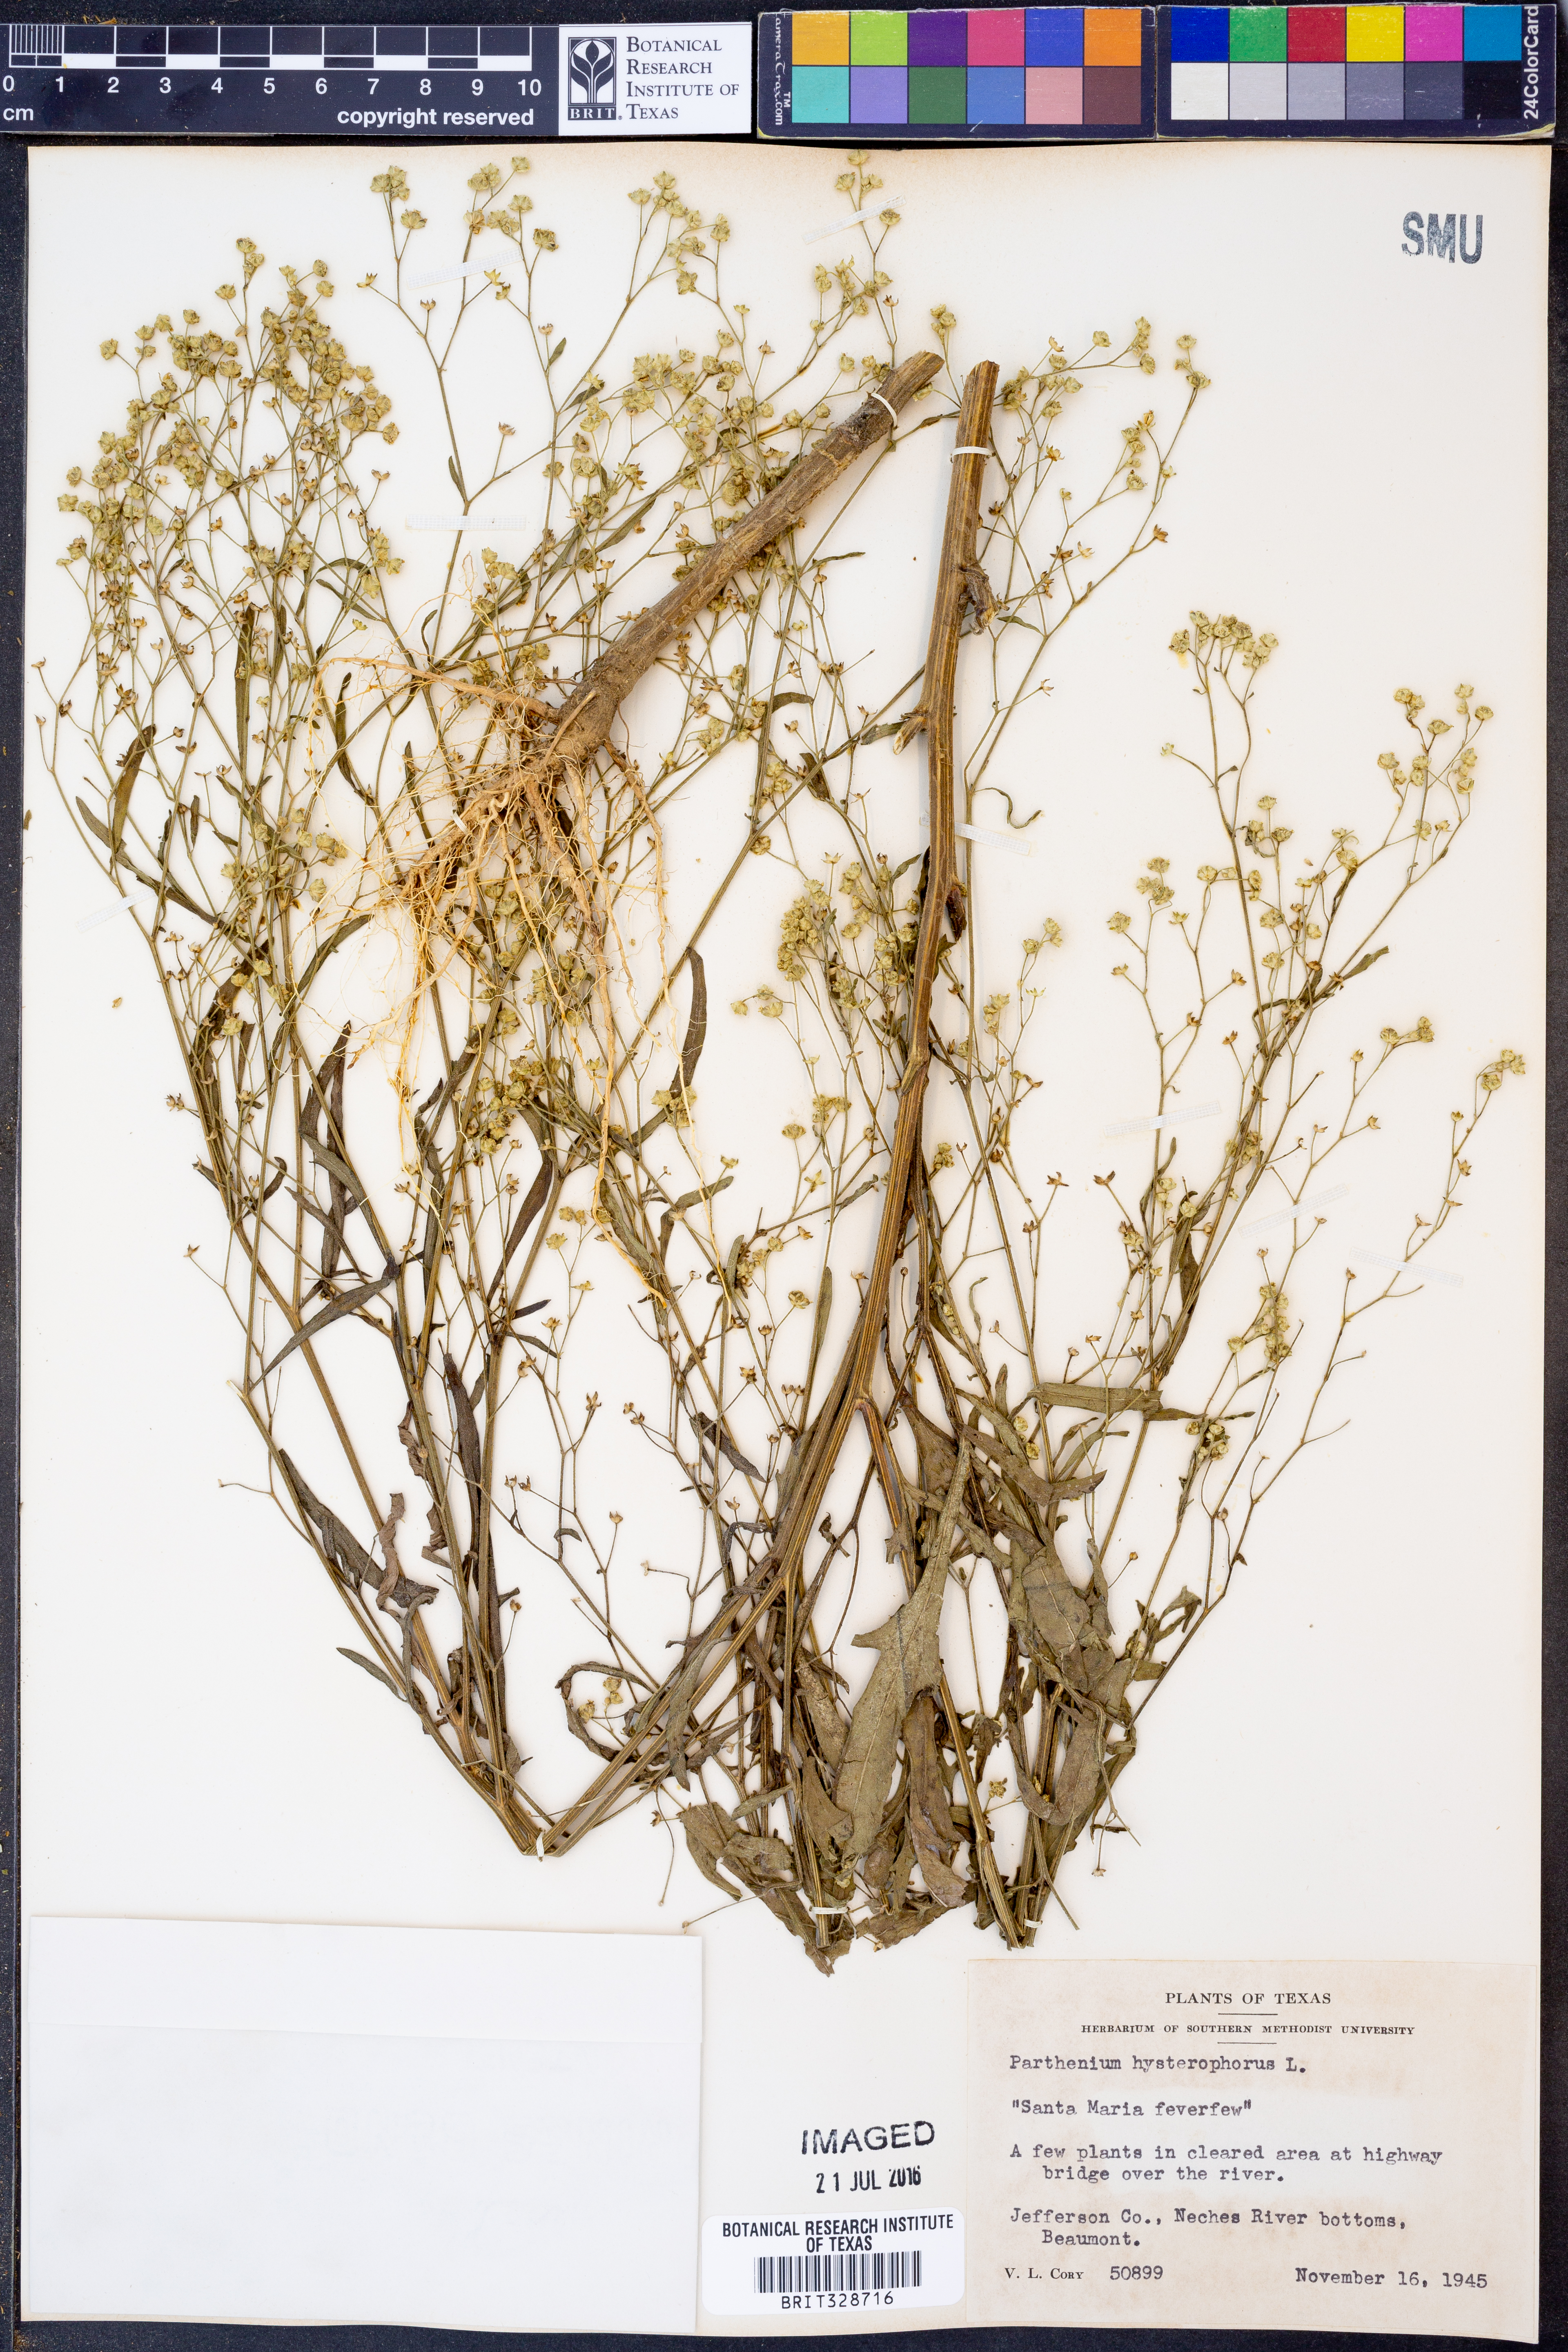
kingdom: Plantae
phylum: Tracheophyta
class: Magnoliopsida
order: Asterales
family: Asteraceae
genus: Parthenium
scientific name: Parthenium hysterophorus
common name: Santa maria feverfew
